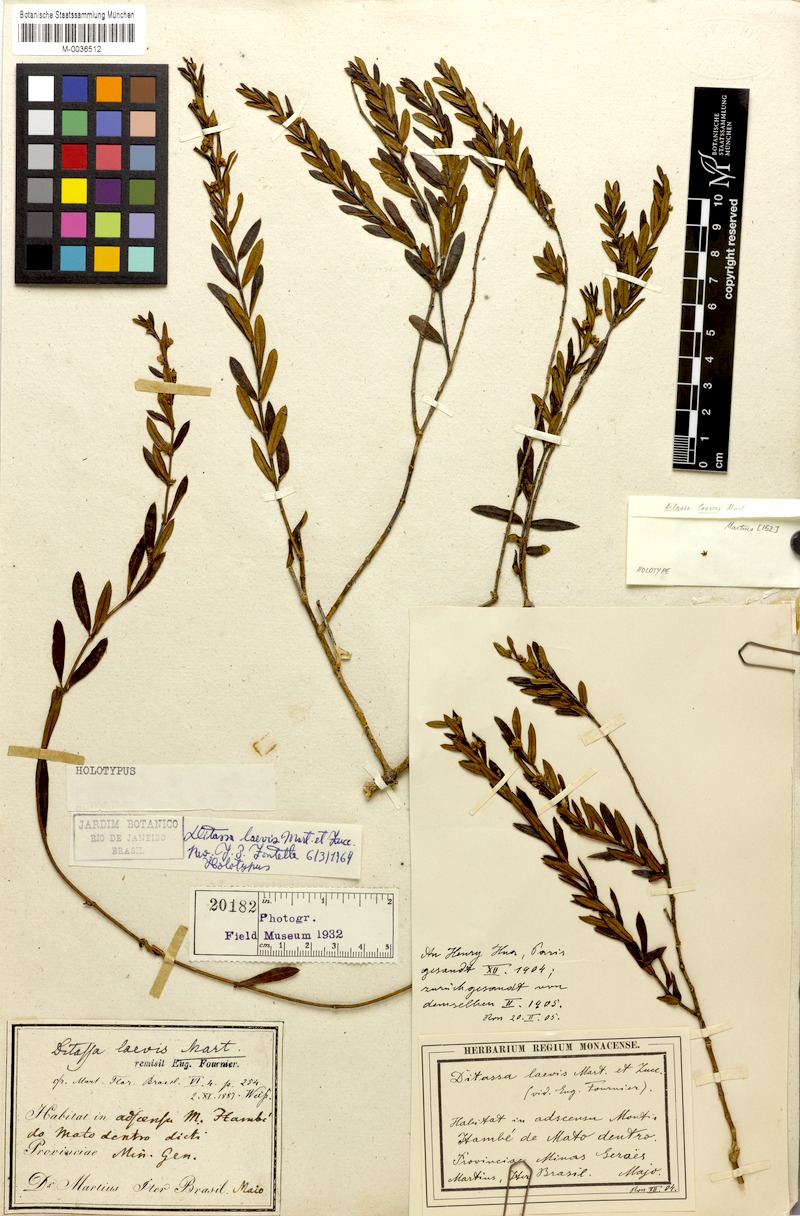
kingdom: Plantae
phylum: Tracheophyta
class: Magnoliopsida
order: Gentianales
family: Apocynaceae
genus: Ditassa
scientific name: Ditassa laevis
